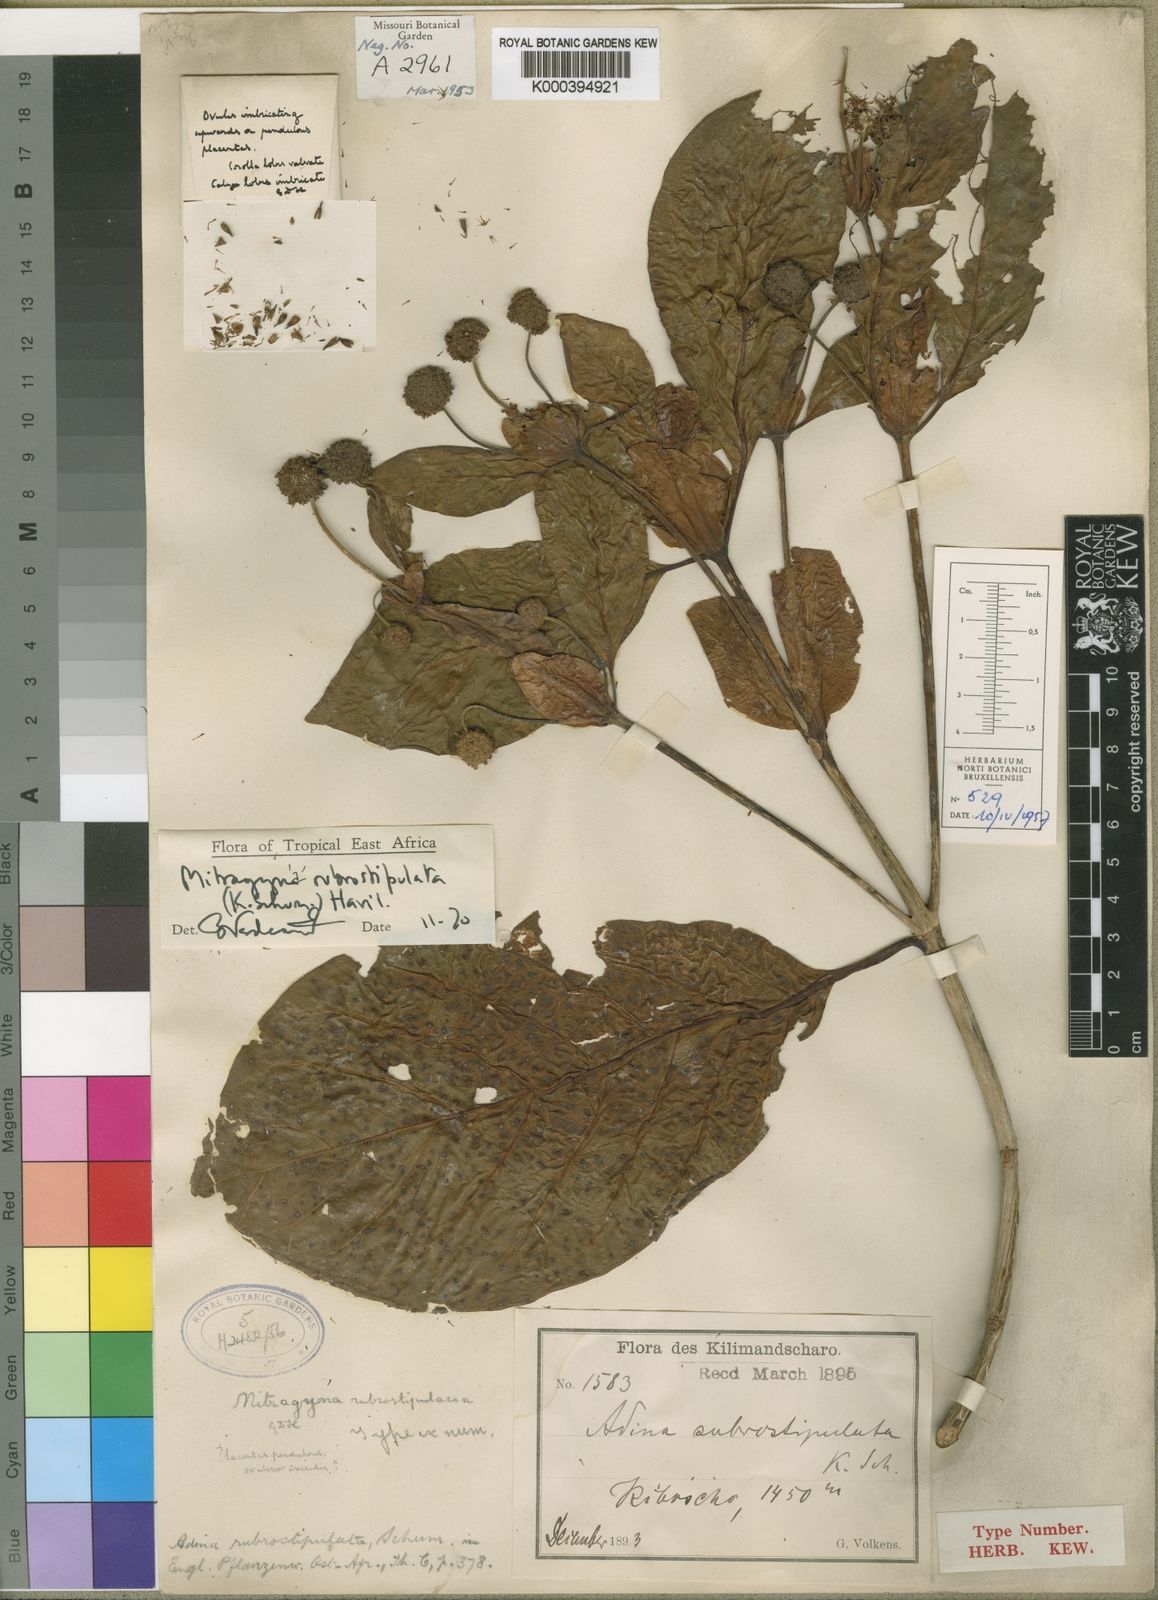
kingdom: Plantae
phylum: Tracheophyta
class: Magnoliopsida
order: Gentianales
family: Rubiaceae
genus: Mitragyna
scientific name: Mitragyna rubrostipulata
